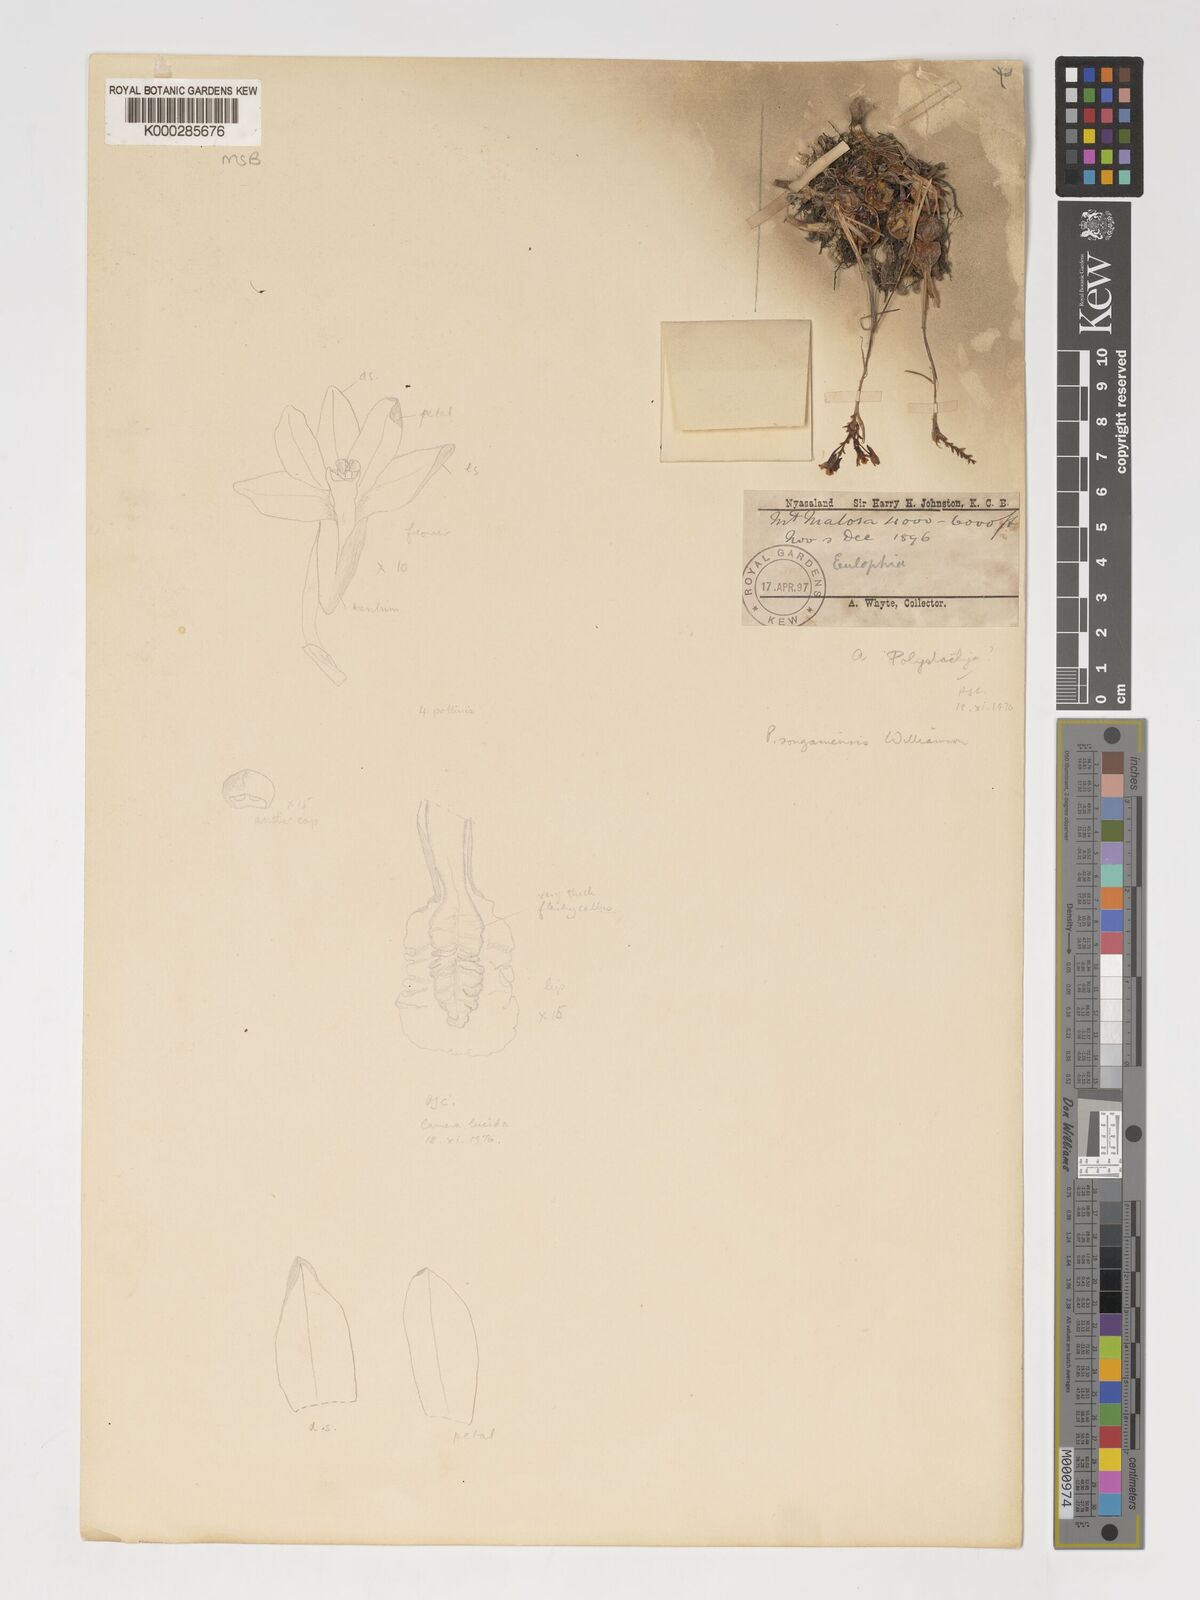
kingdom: Plantae
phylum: Tracheophyta
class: Liliopsida
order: Asparagales
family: Orchidaceae
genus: Polystachya
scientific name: Polystachya songaniensis
